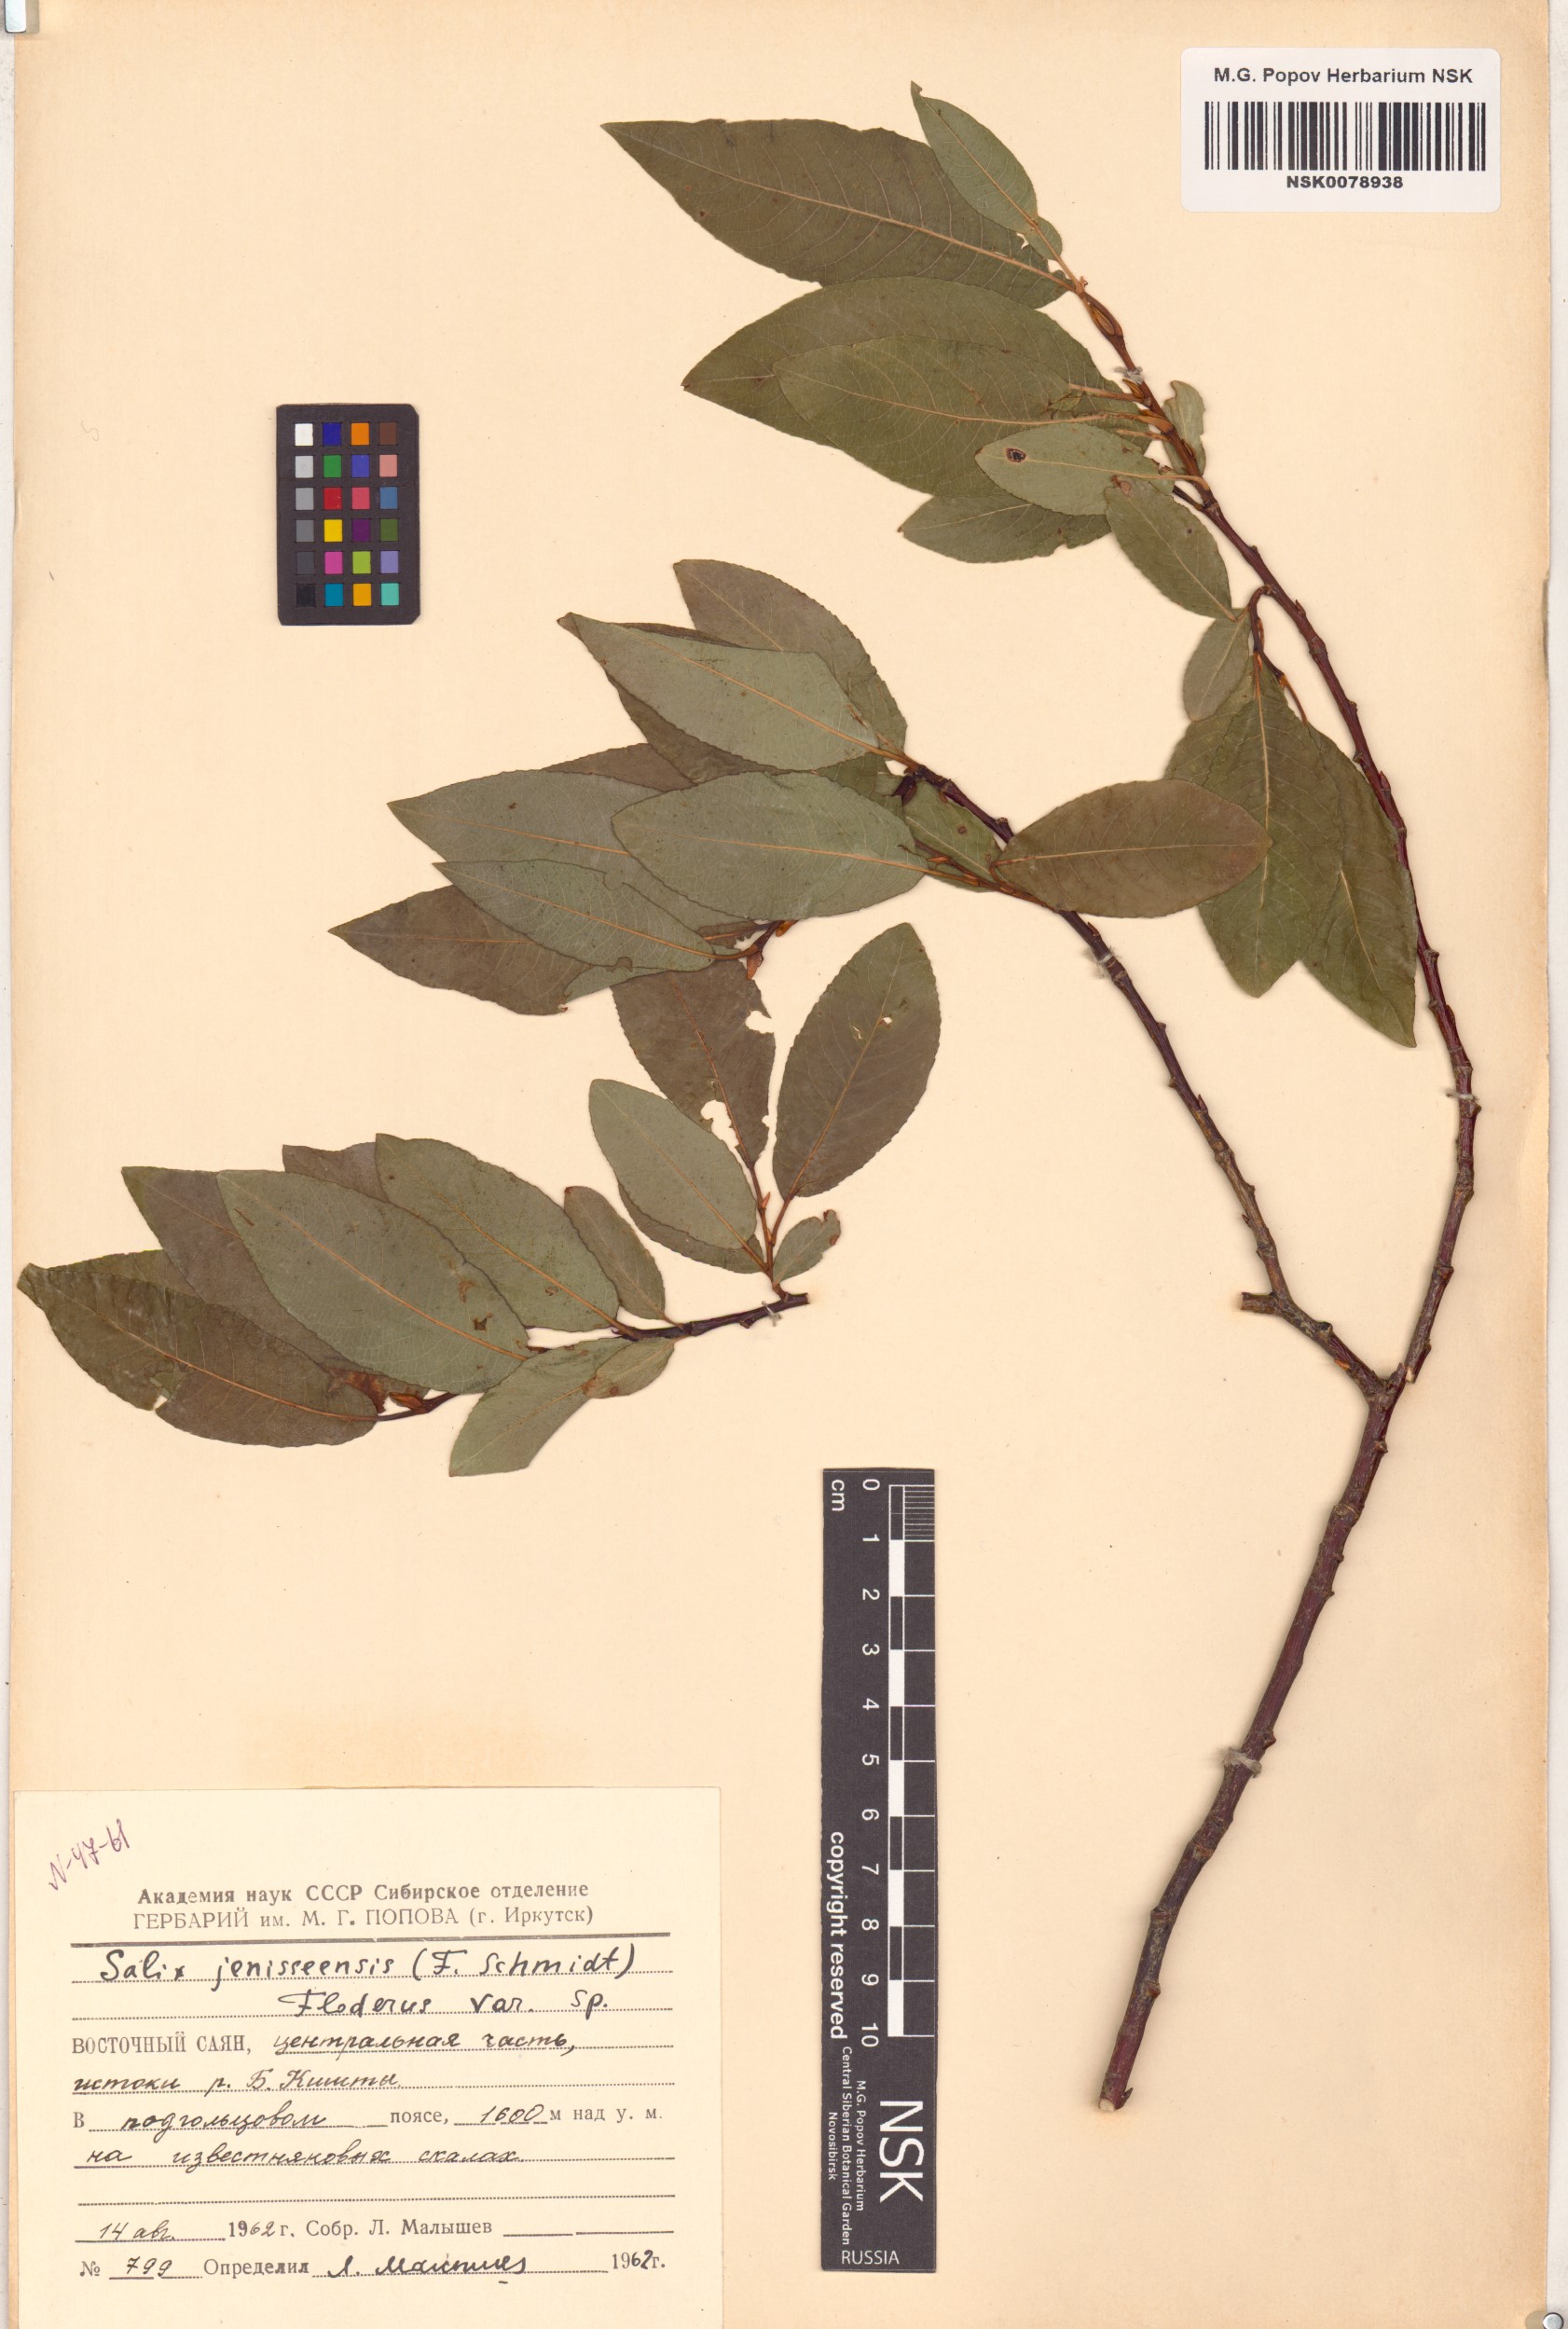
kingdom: Plantae
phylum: Tracheophyta
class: Magnoliopsida
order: Malpighiales
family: Salicaceae
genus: Salix
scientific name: Salix jenisseensis
